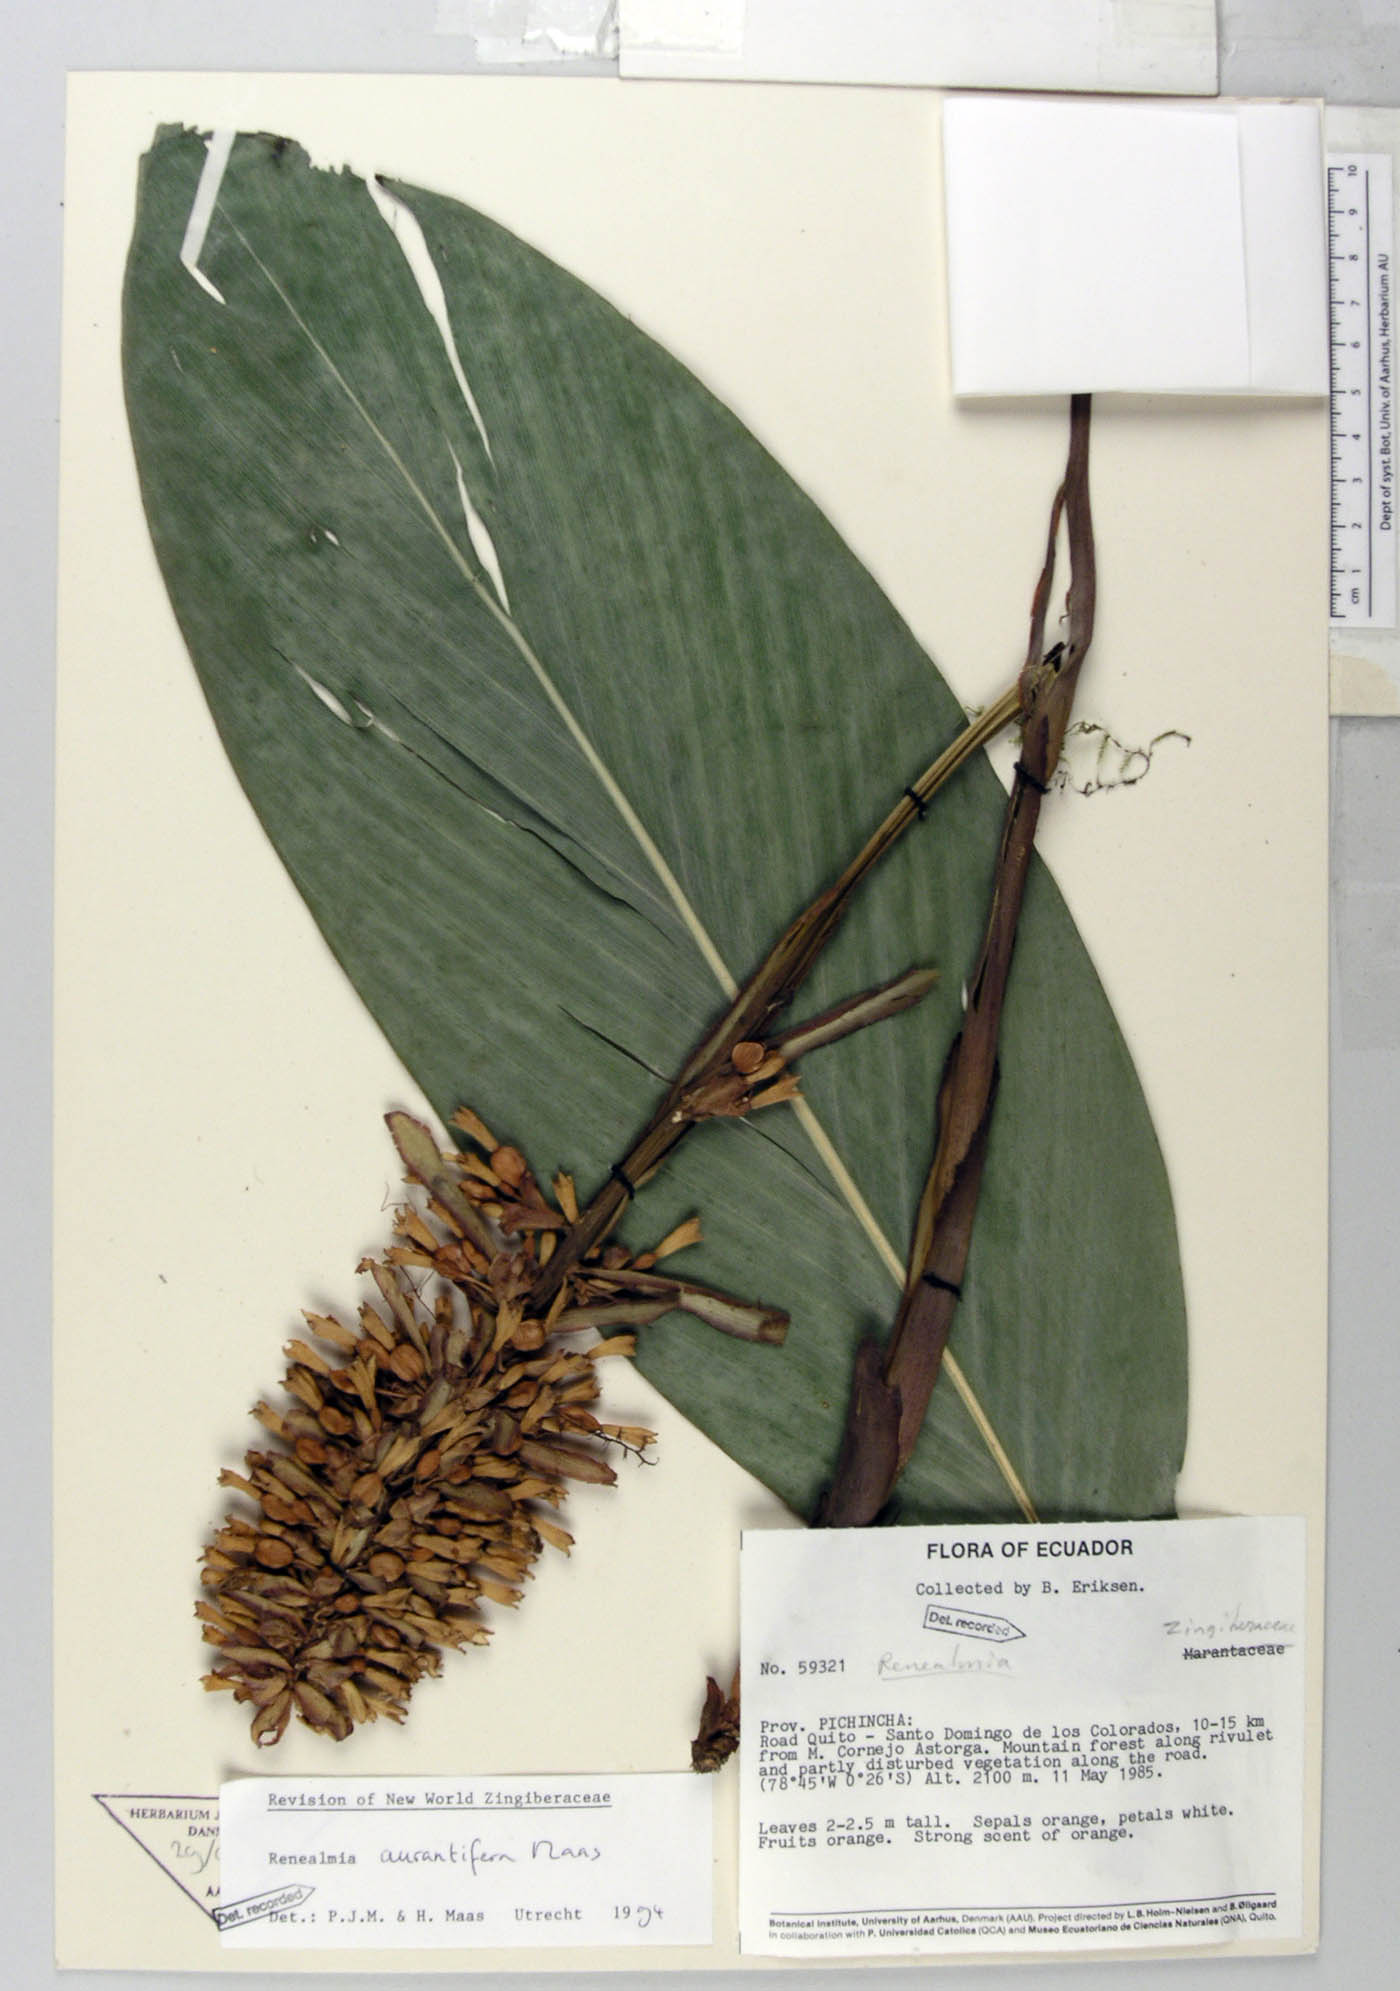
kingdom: Plantae
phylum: Tracheophyta
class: Liliopsida
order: Zingiberales
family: Zingiberaceae
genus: Renealmia
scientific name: Renealmia aurantiifera
